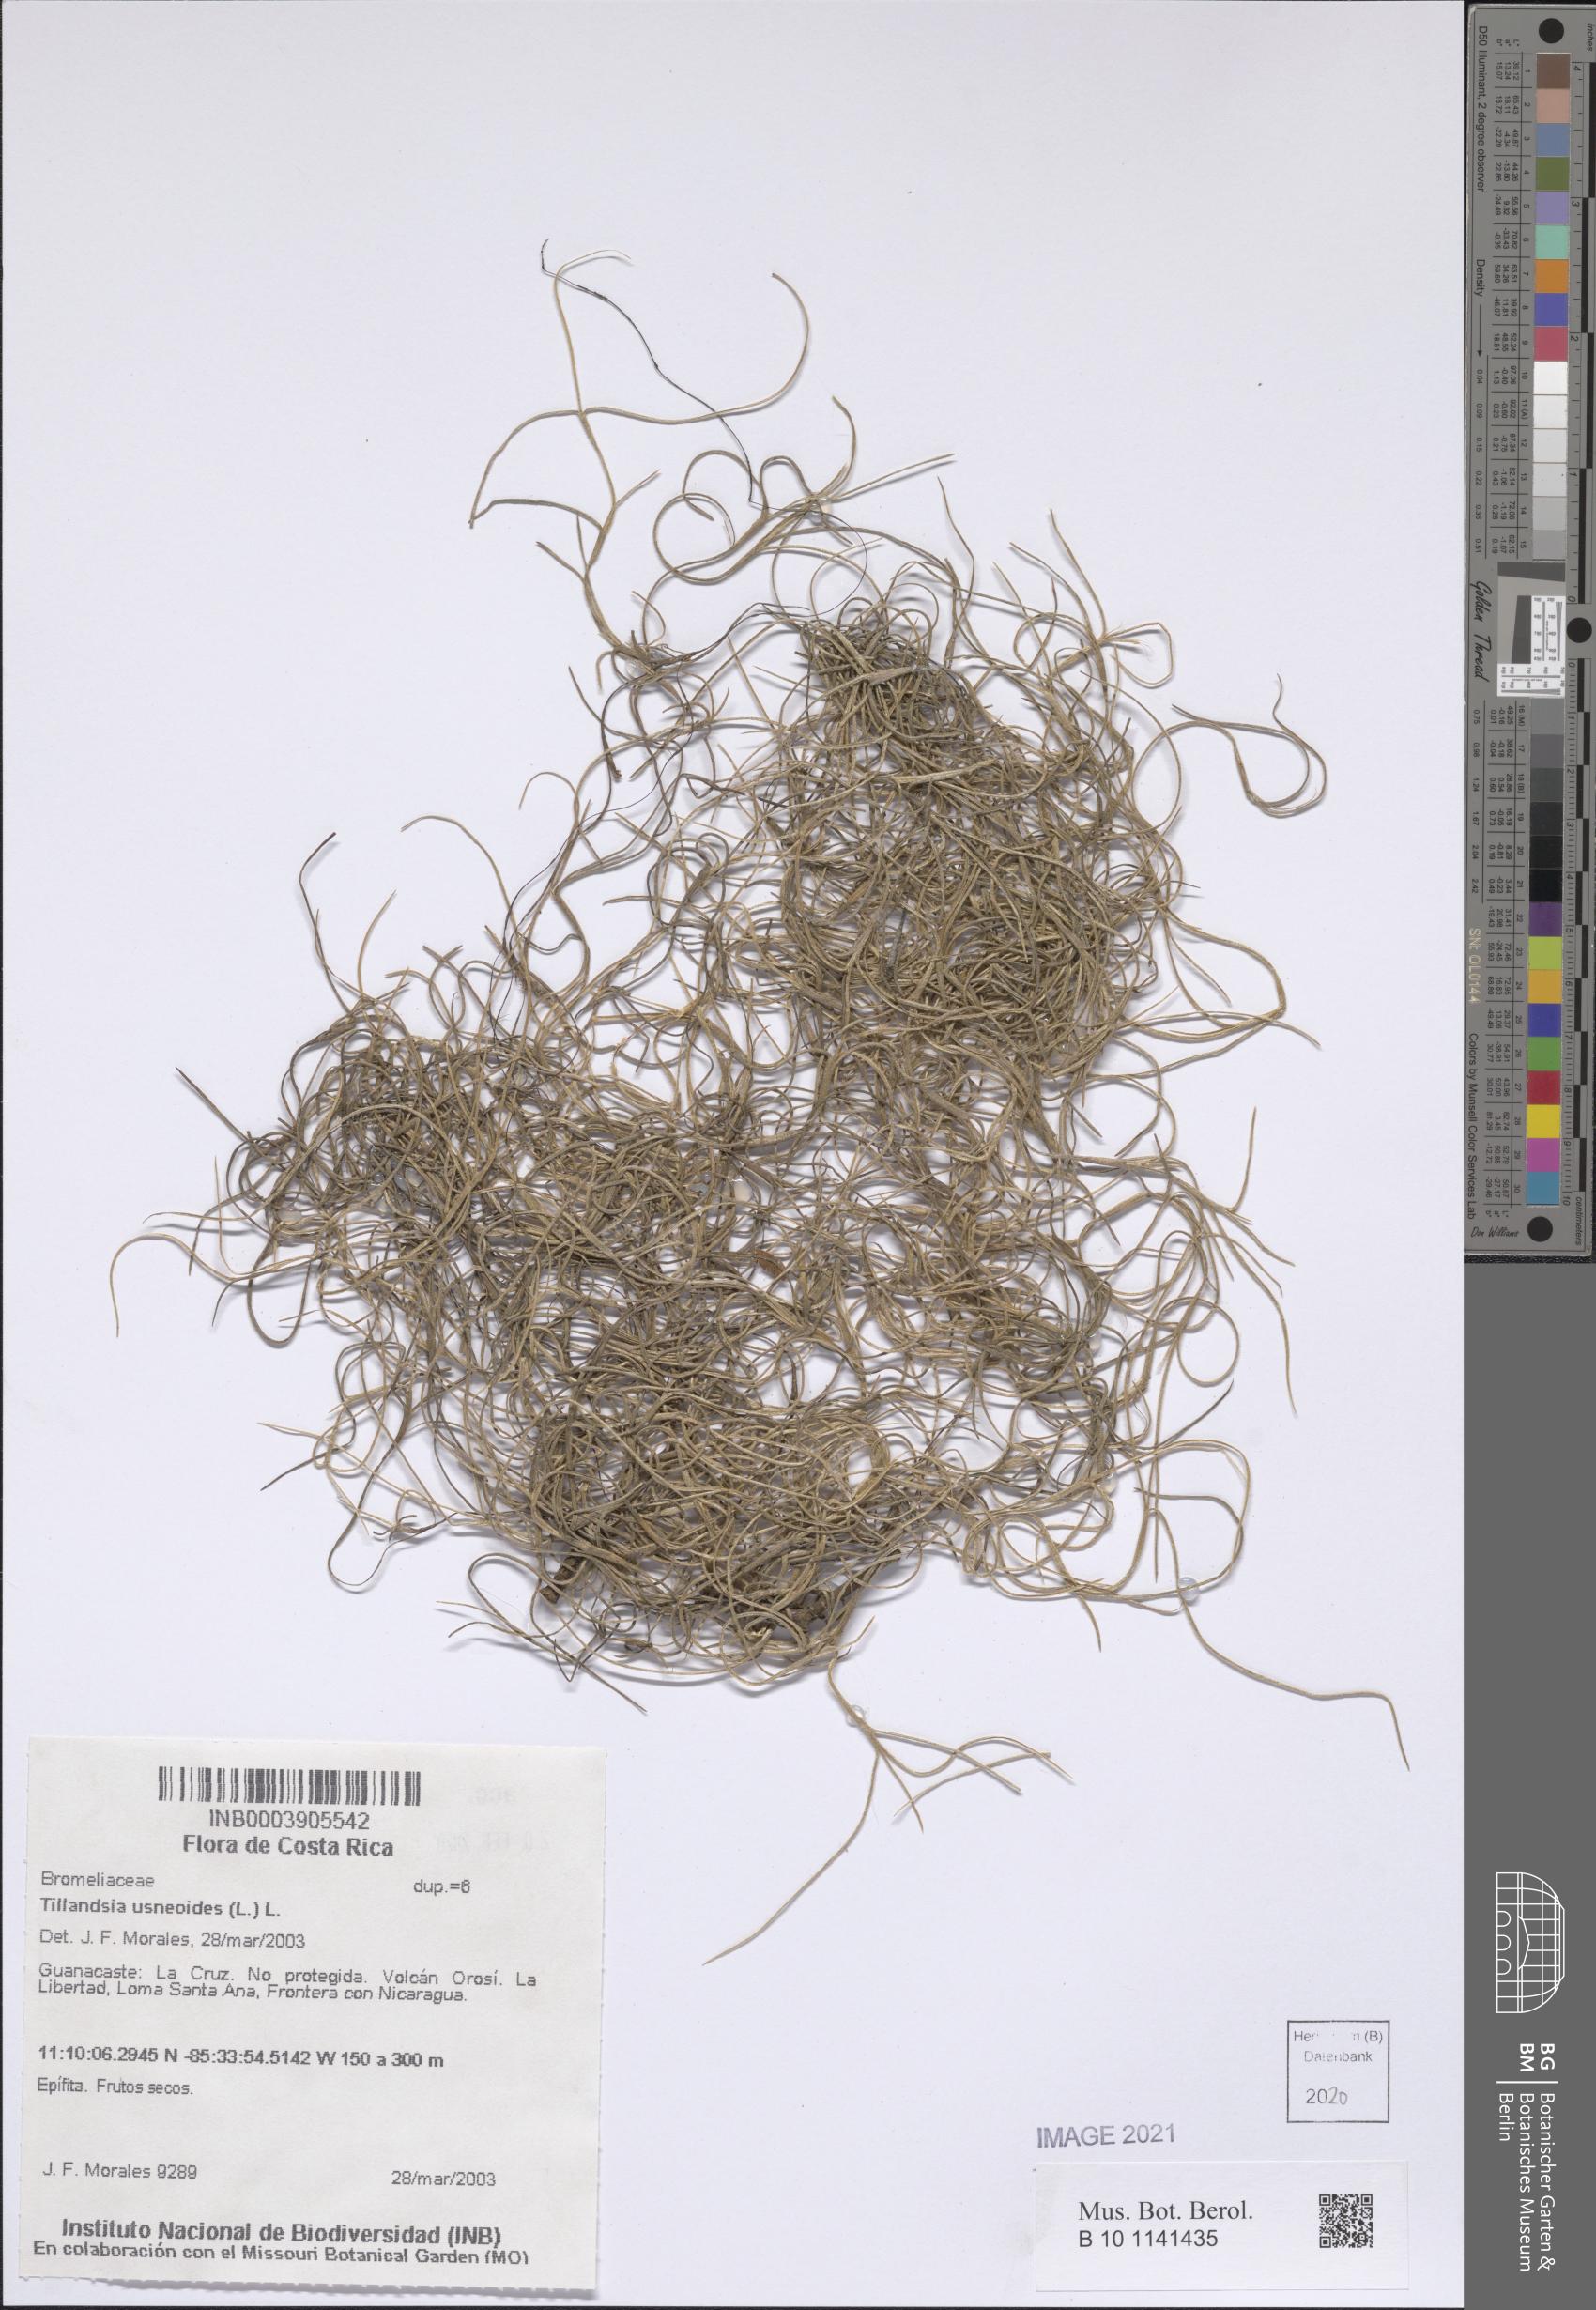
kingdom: Plantae
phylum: Tracheophyta
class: Liliopsida
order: Poales
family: Bromeliaceae
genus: Tillandsia
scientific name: Tillandsia usneoides
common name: Spanish moss
